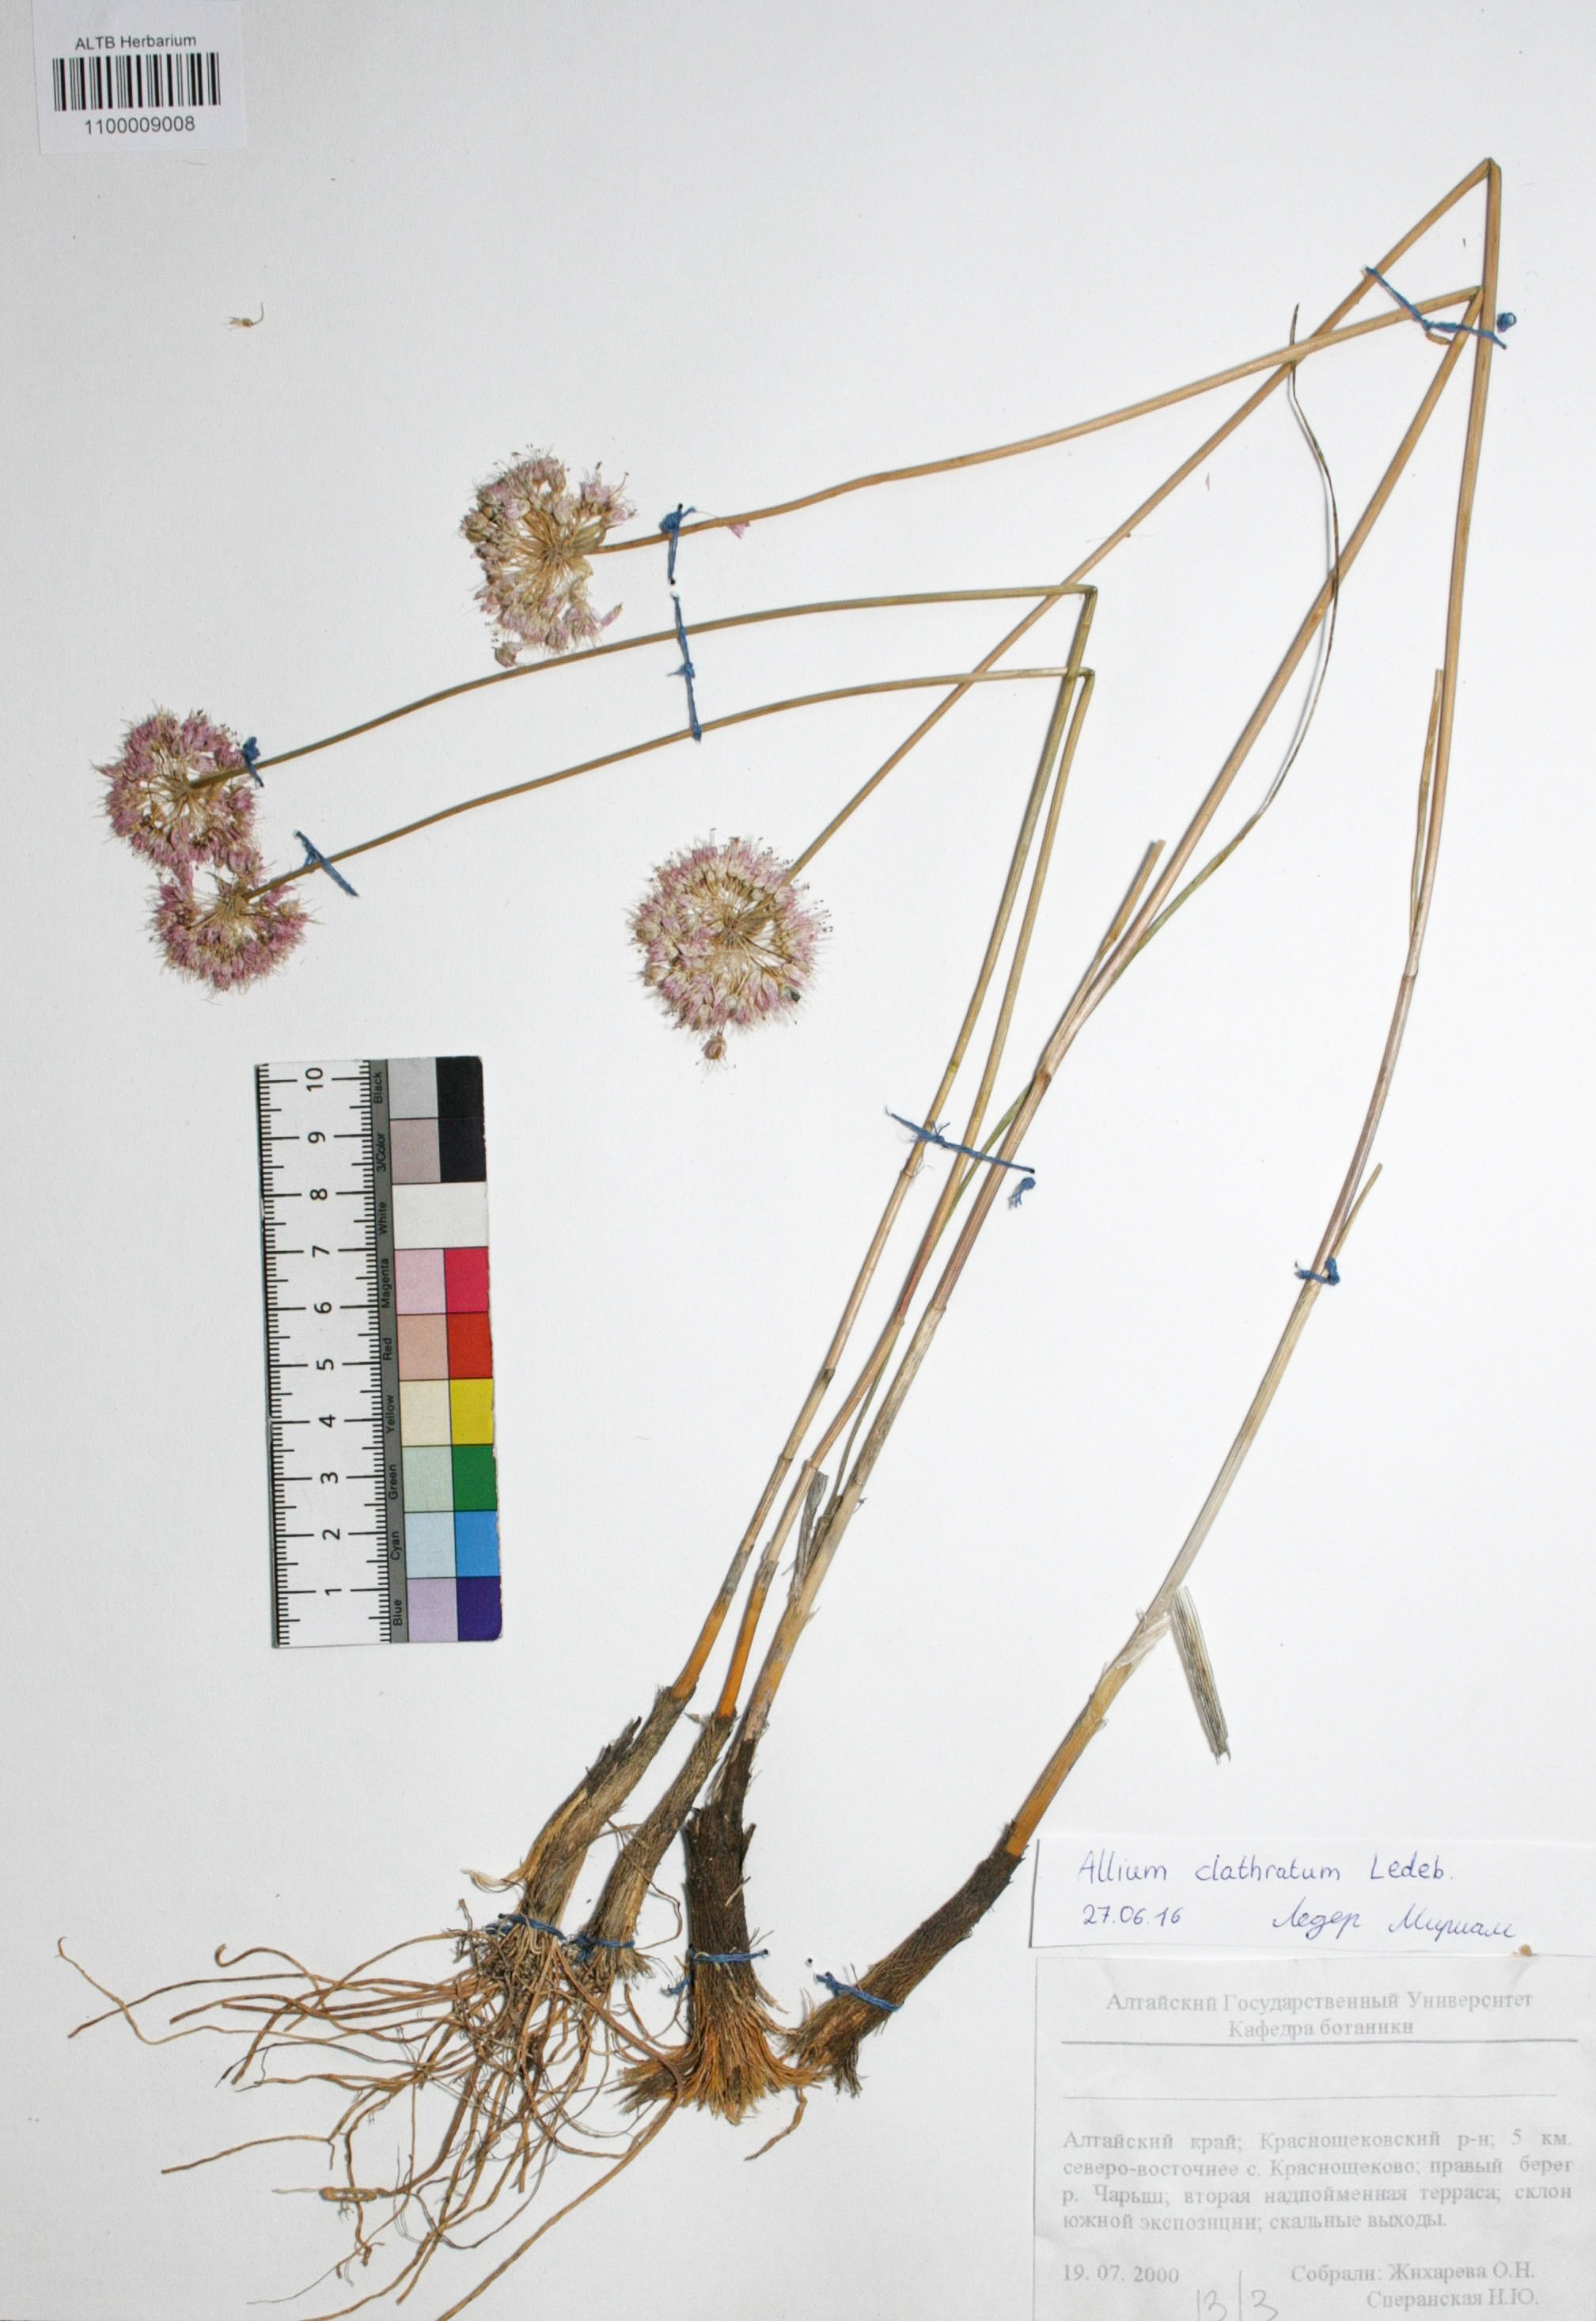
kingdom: Plantae
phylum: Tracheophyta
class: Liliopsida
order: Asparagales
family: Amaryllidaceae
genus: Allium
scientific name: Allium clathratum
